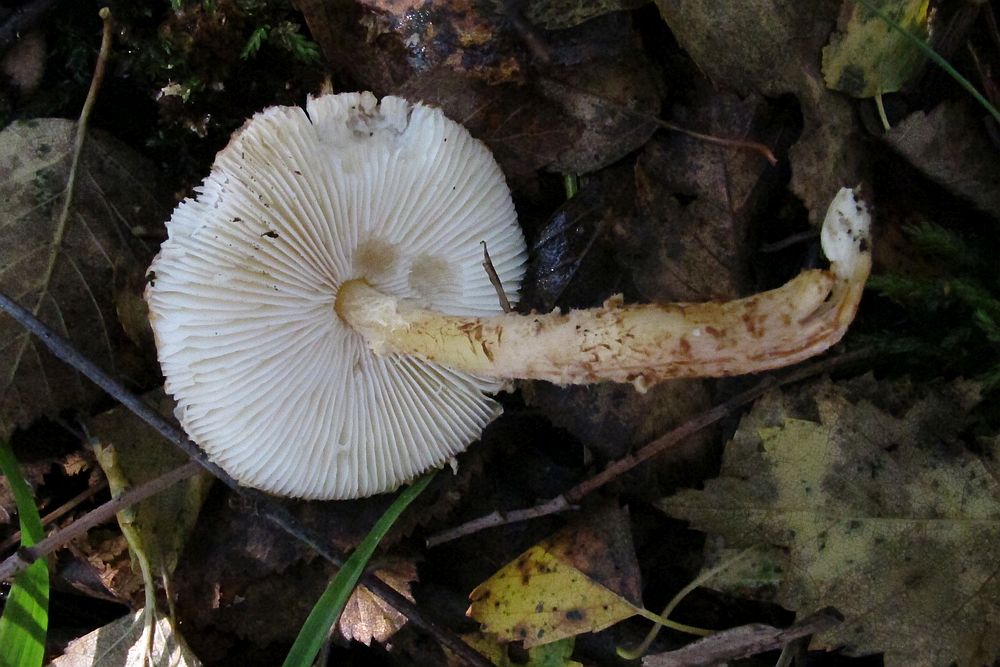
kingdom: Fungi
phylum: Basidiomycota
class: Agaricomycetes
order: Agaricales
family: Agaricaceae
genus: Lepiota
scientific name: Lepiota magnispora
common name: gulfnugget parasolhat
